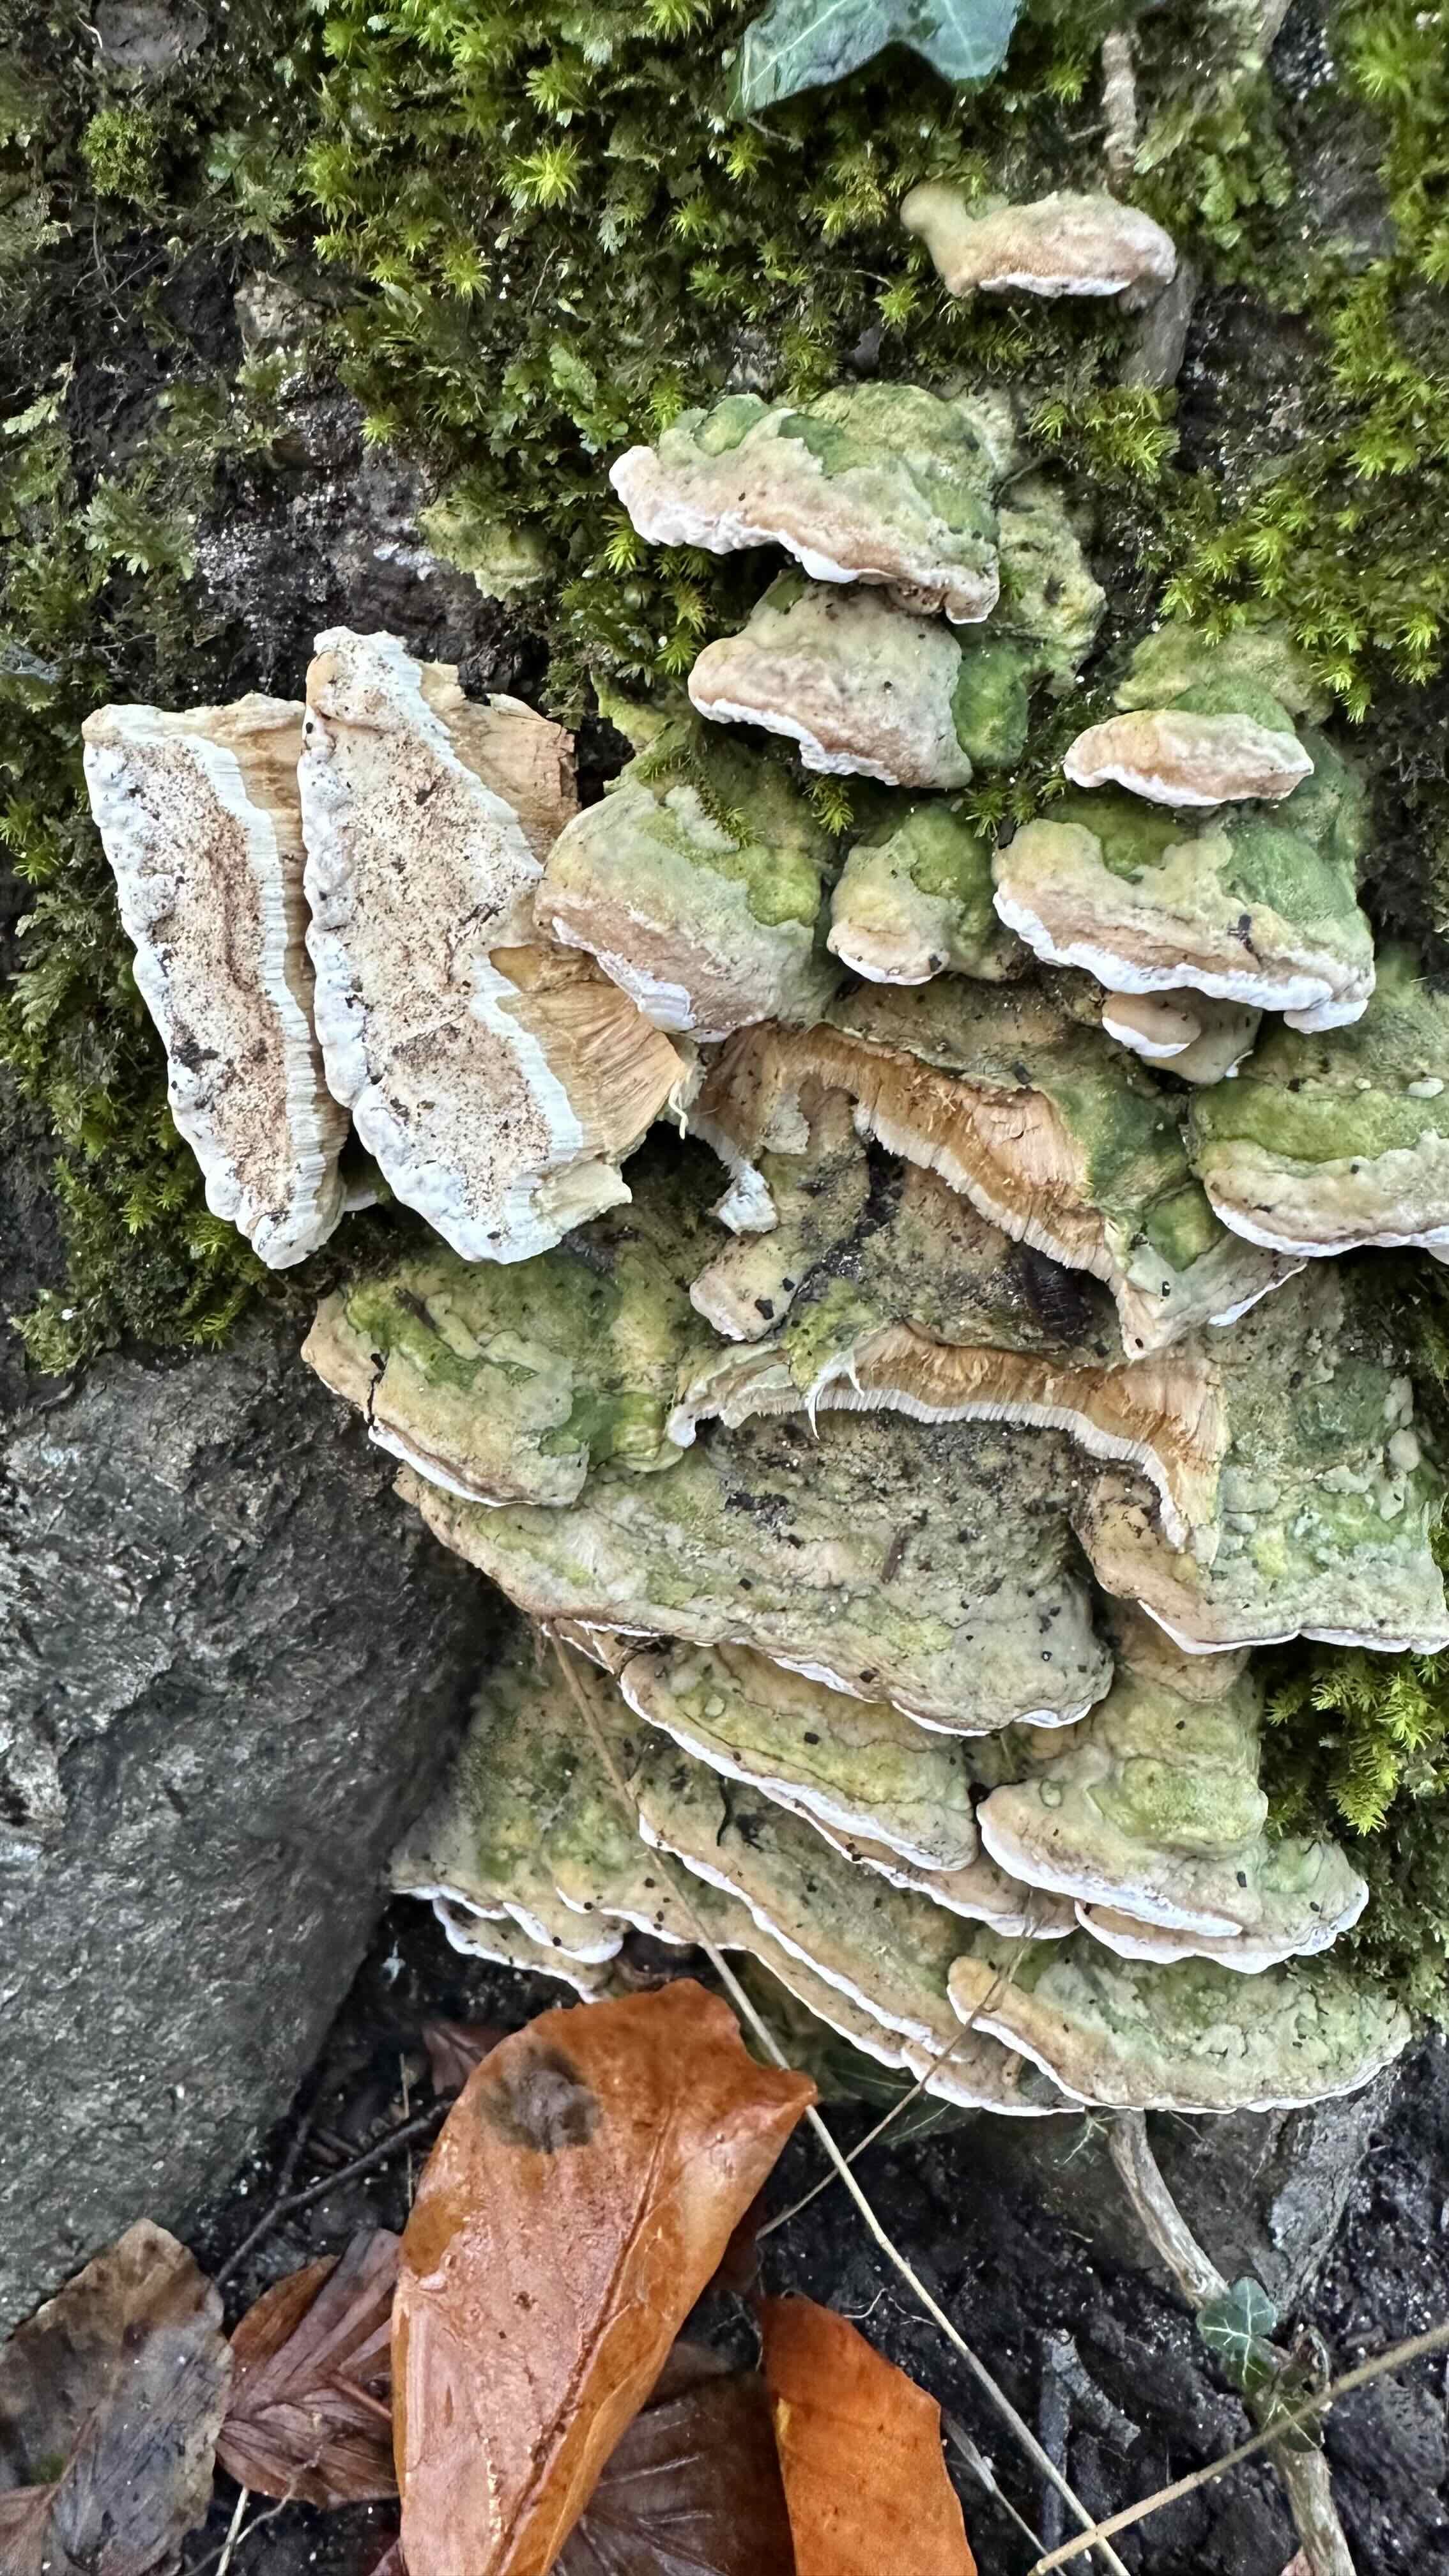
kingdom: Fungi
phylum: Basidiomycota
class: Agaricomycetes
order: Hymenochaetales
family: Oxyporaceae
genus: Oxyporus
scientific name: Oxyporus populinus
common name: sammenvokset trylleporesvamp
